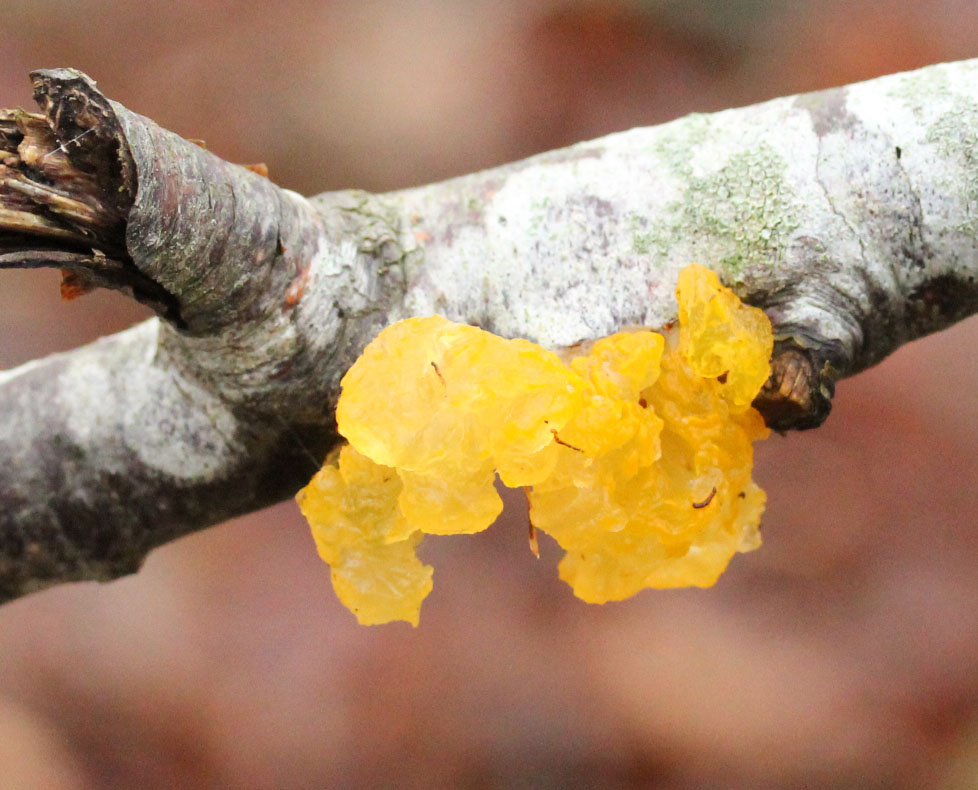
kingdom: Fungi
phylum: Basidiomycota
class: Tremellomycetes
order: Tremellales
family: Tremellaceae
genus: Tremella
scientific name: Tremella mesenterica
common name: gul bævresvamp
